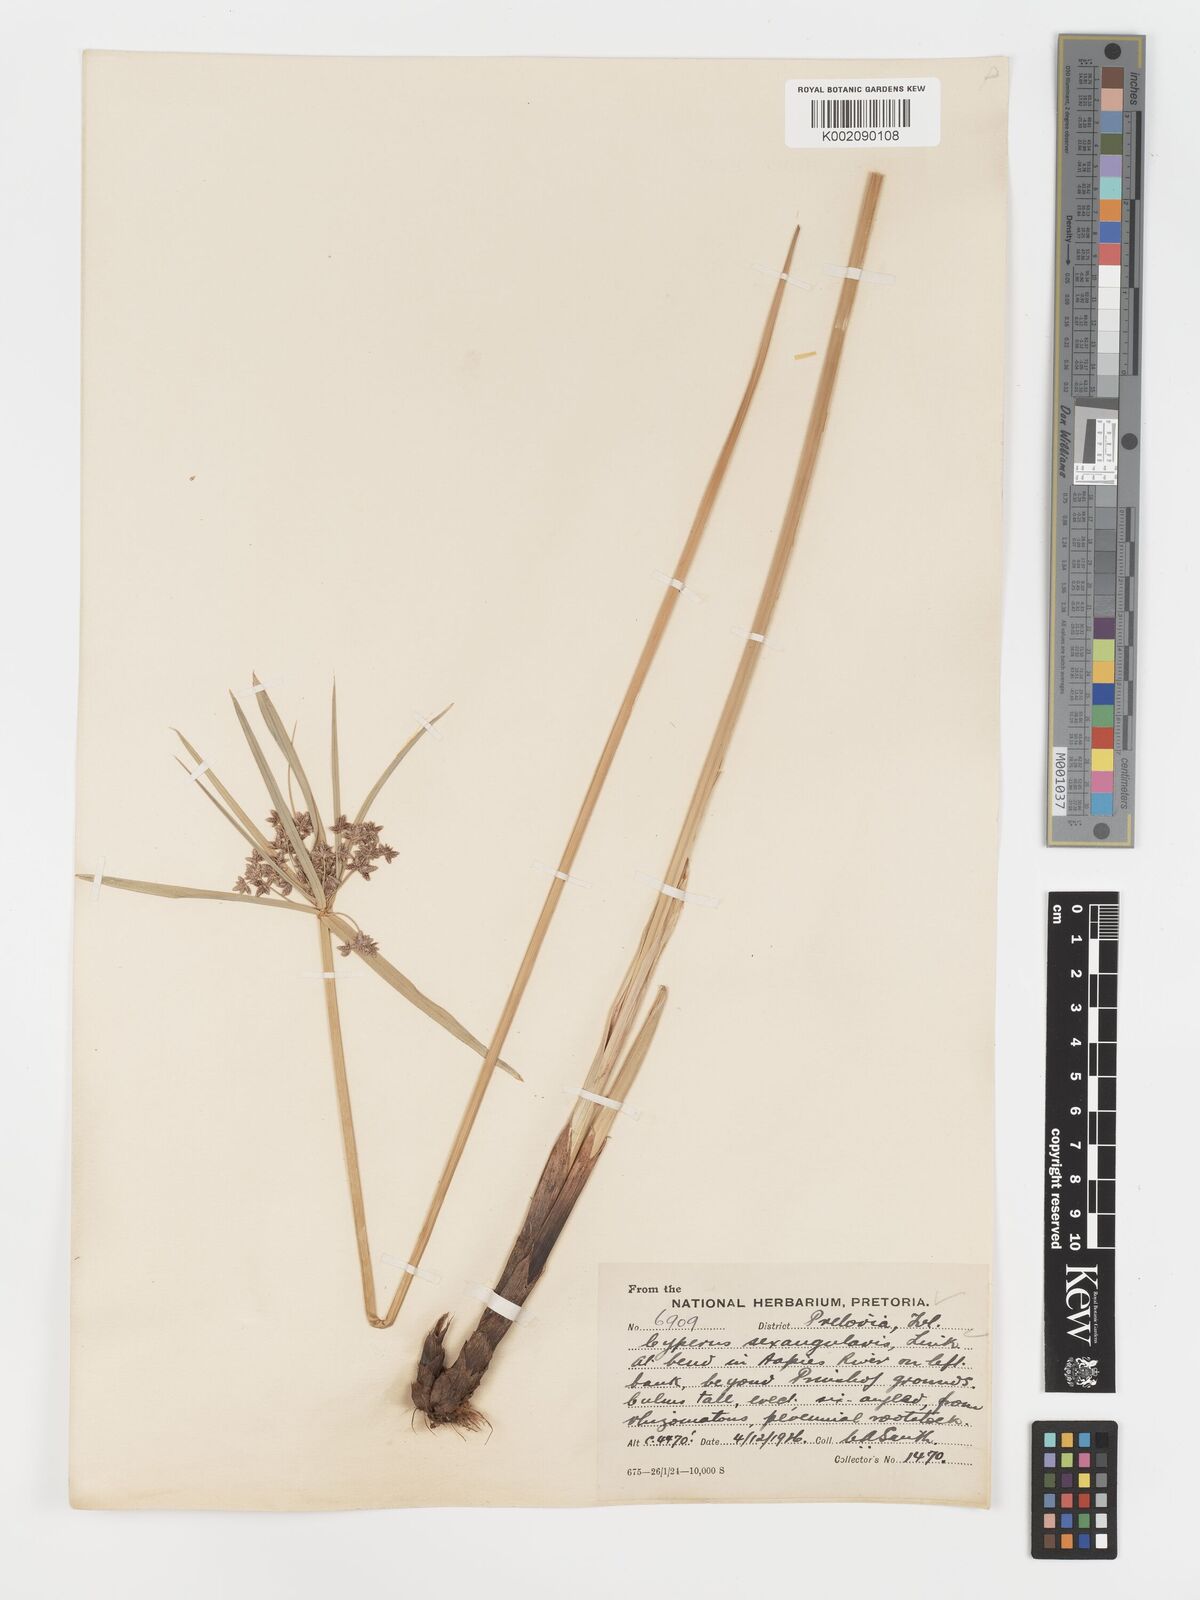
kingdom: Plantae
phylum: Tracheophyta
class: Liliopsida
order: Poales
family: Cyperaceae
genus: Cyperus
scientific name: Cyperus sexangularis
